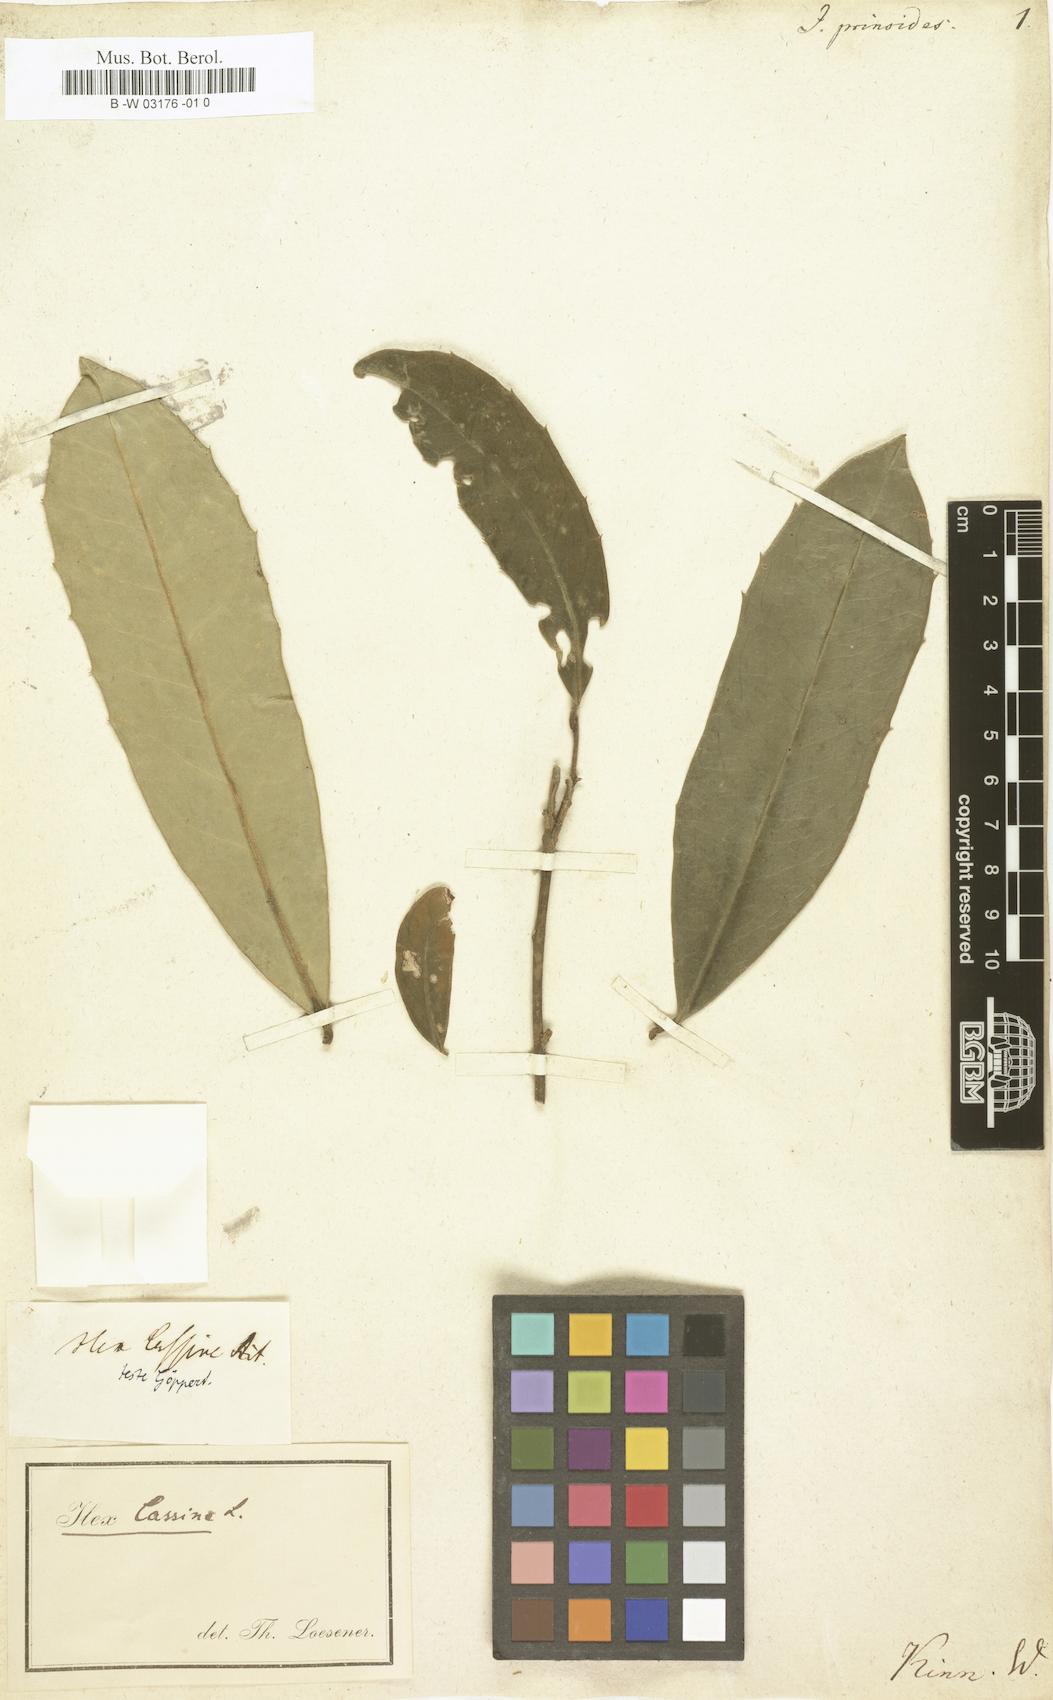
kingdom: Plantae
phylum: Tracheophyta
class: Magnoliopsida
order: Aquifoliales
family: Aquifoliaceae
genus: Ilex
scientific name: Ilex decidua
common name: Possum-haw
